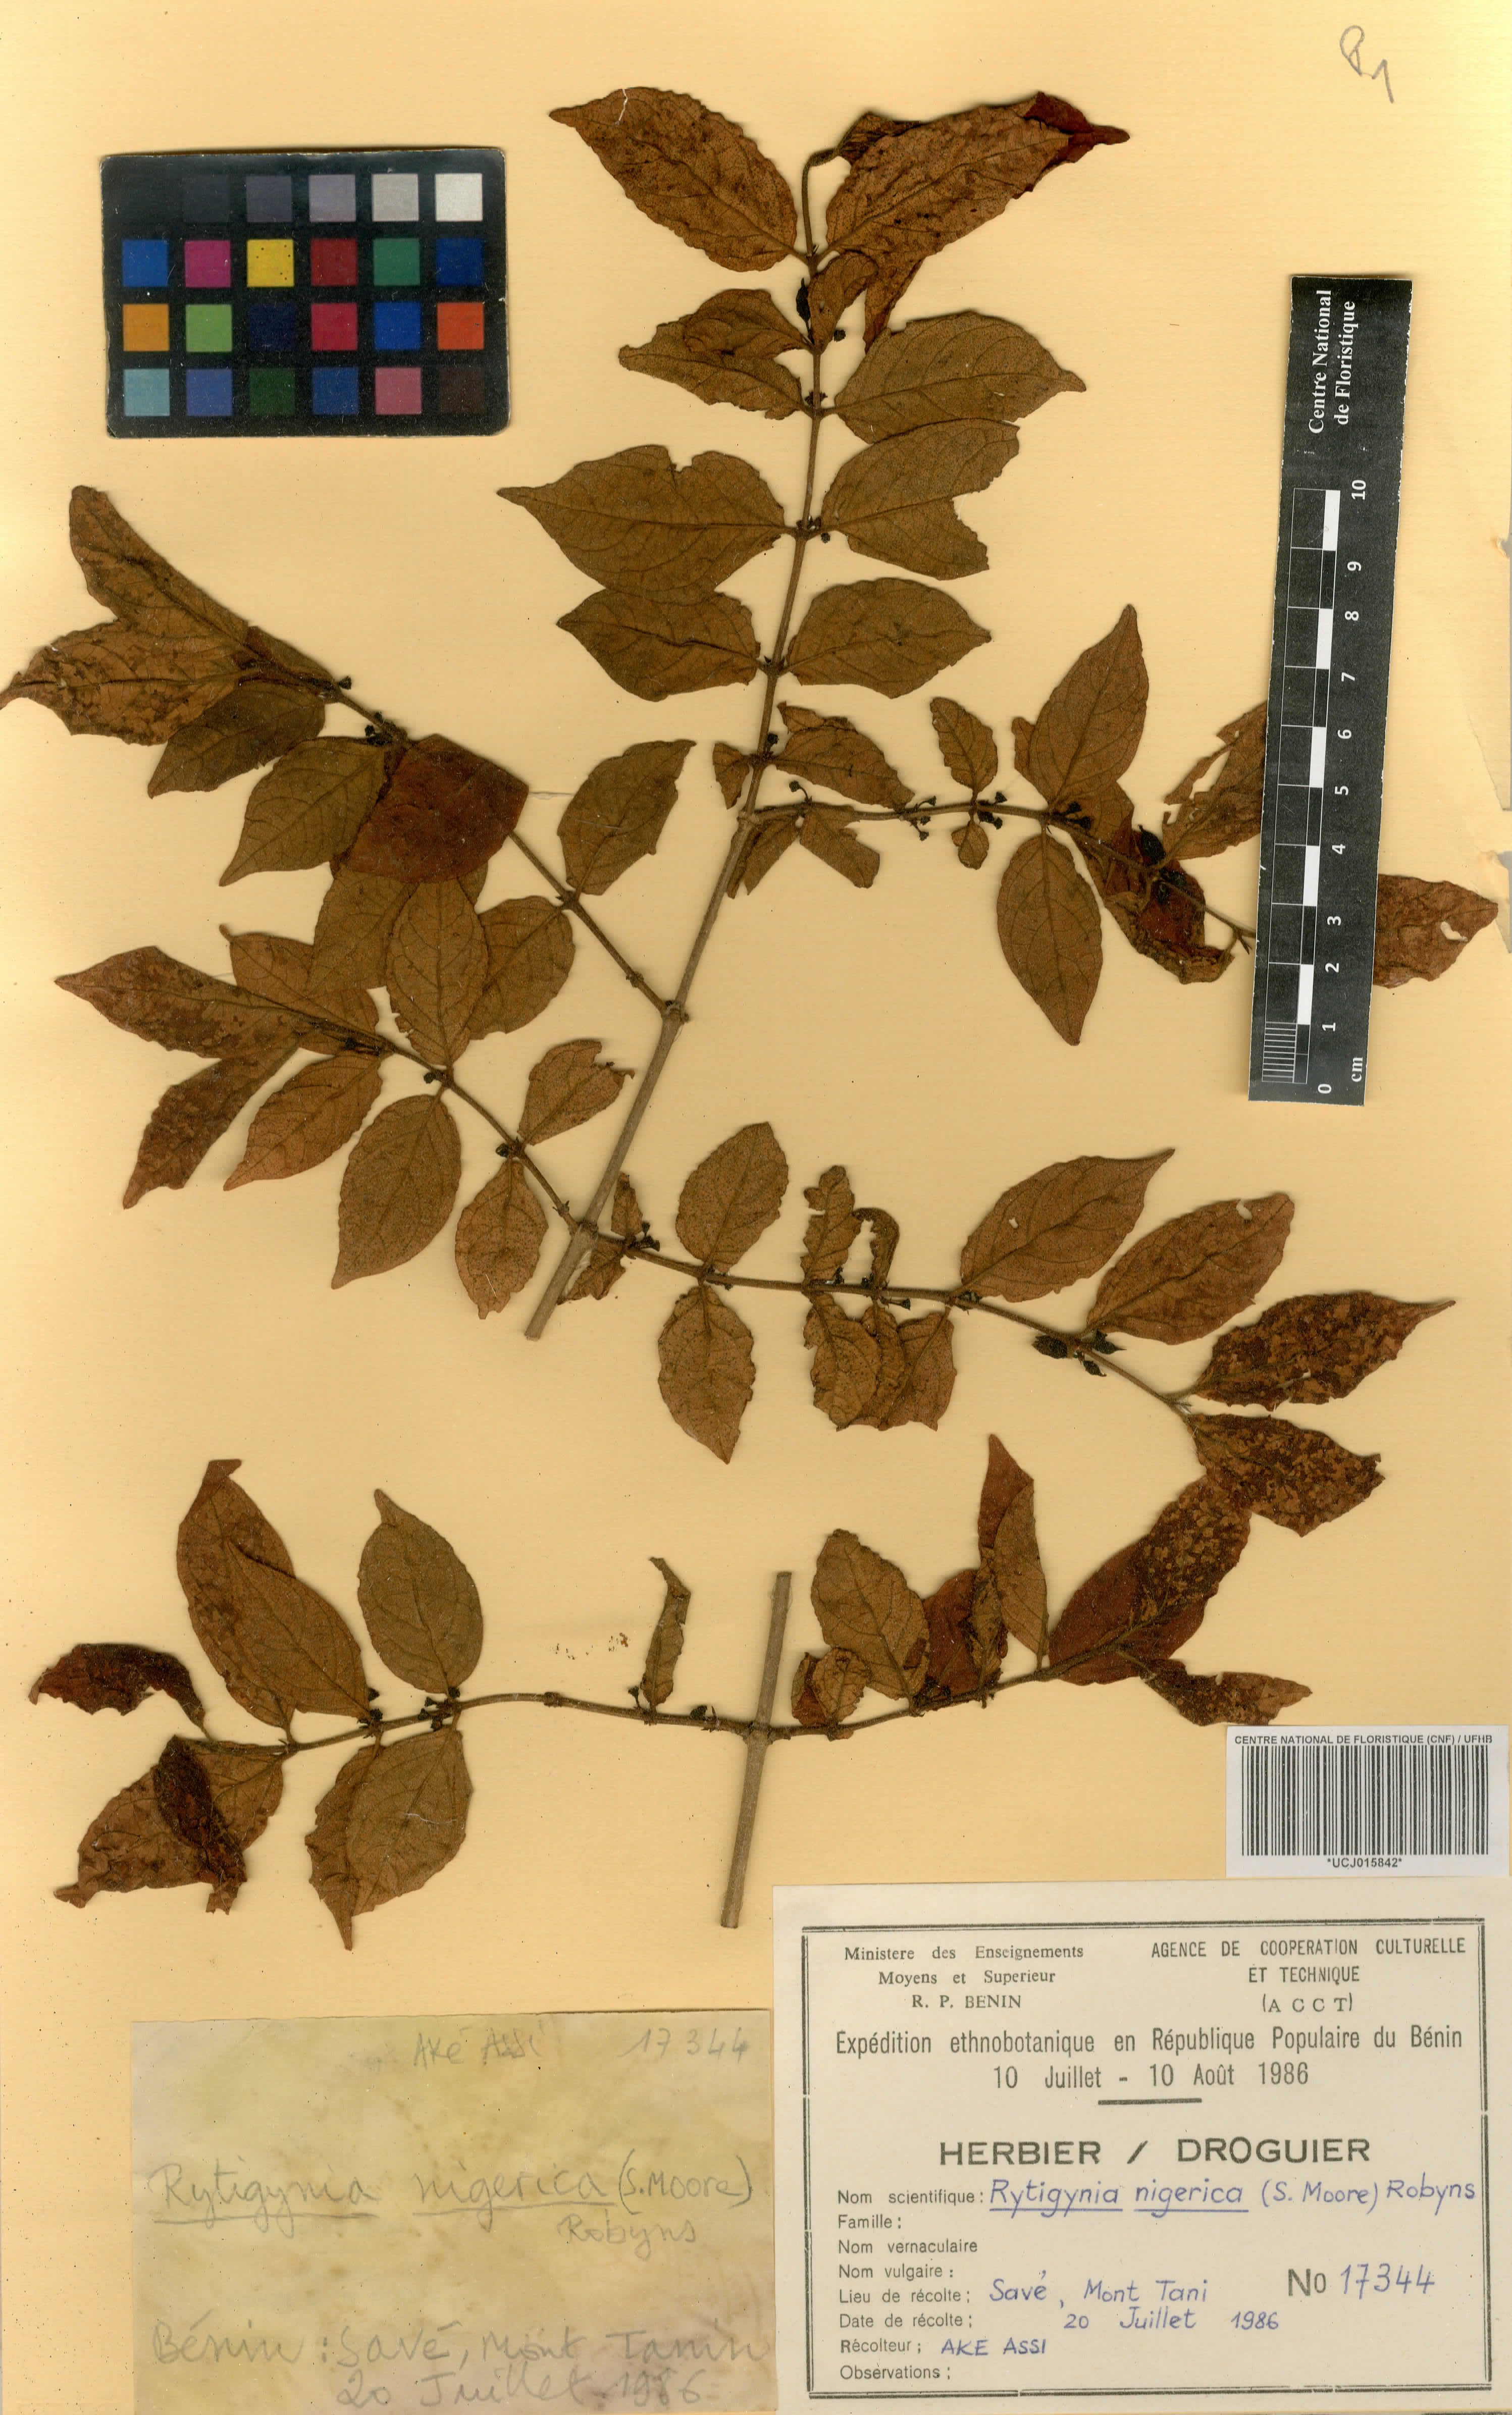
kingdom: Plantae
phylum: Tracheophyta
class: Magnoliopsida
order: Gentianales
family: Rubiaceae
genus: Rytigynia
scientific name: Rytigynia nigerica
